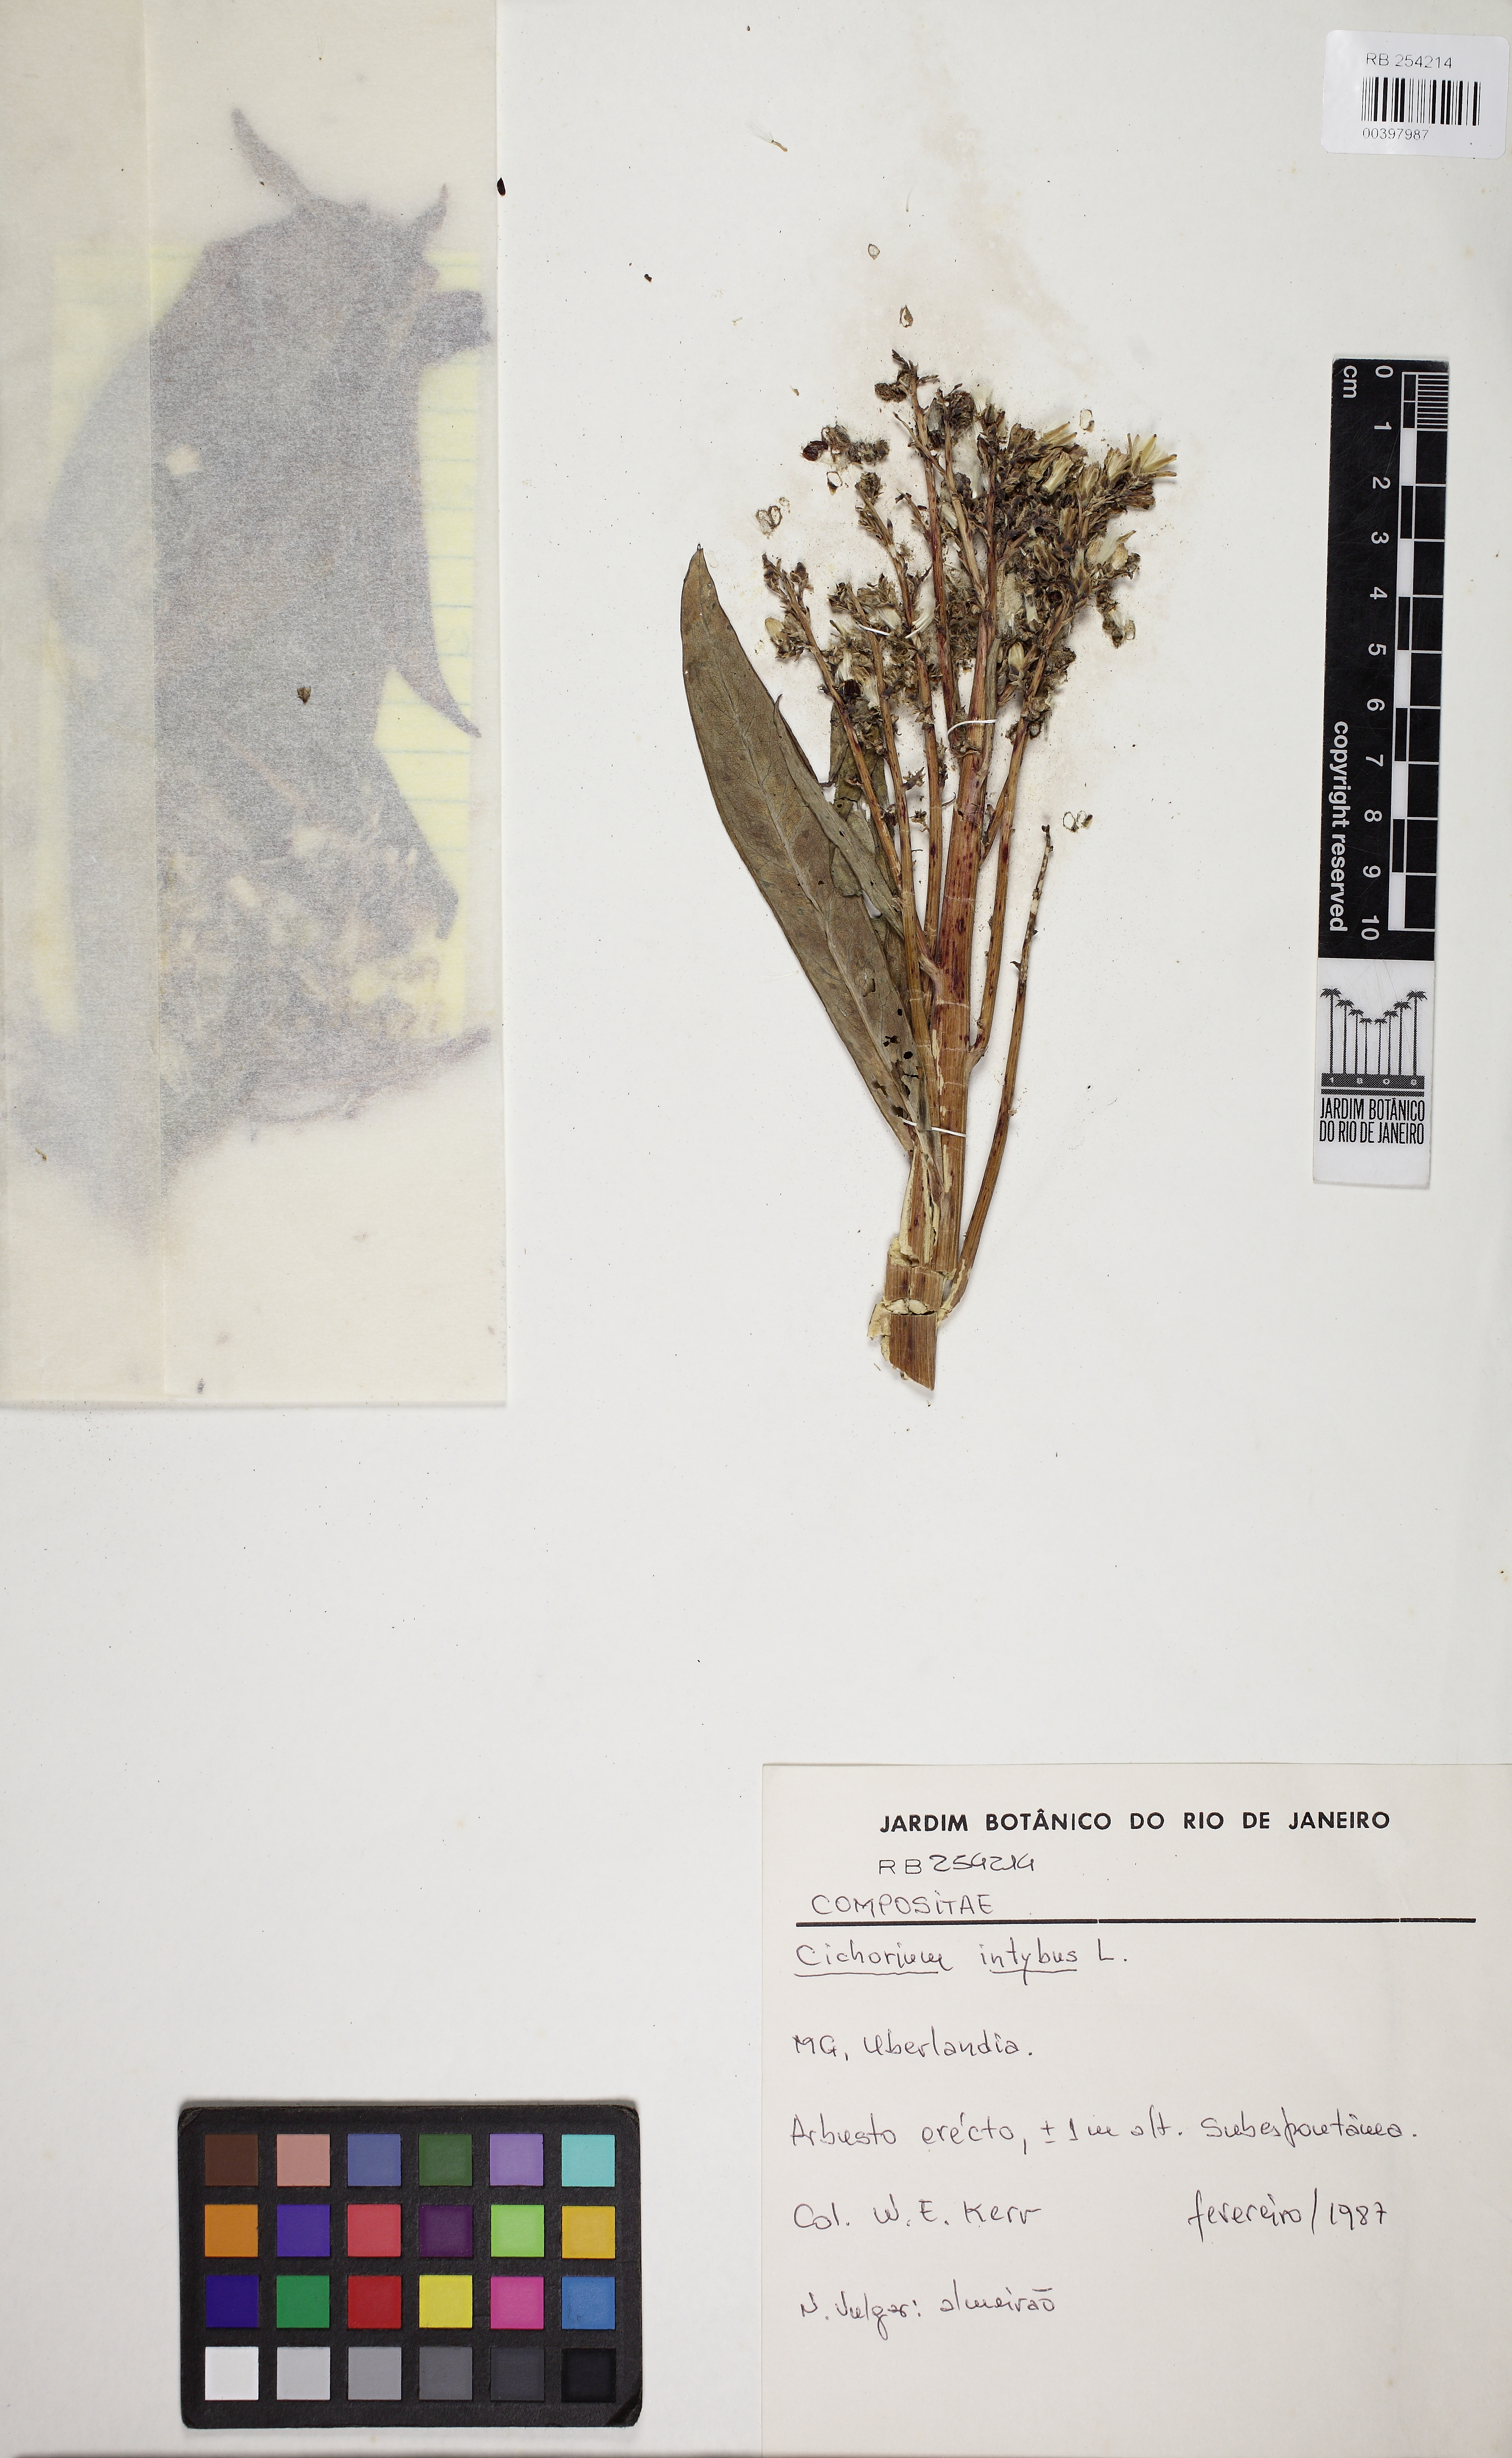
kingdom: Plantae
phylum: Tracheophyta
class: Magnoliopsida
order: Asterales
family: Asteraceae
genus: Cichorium
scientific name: Cichorium intybus
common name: Chicory
